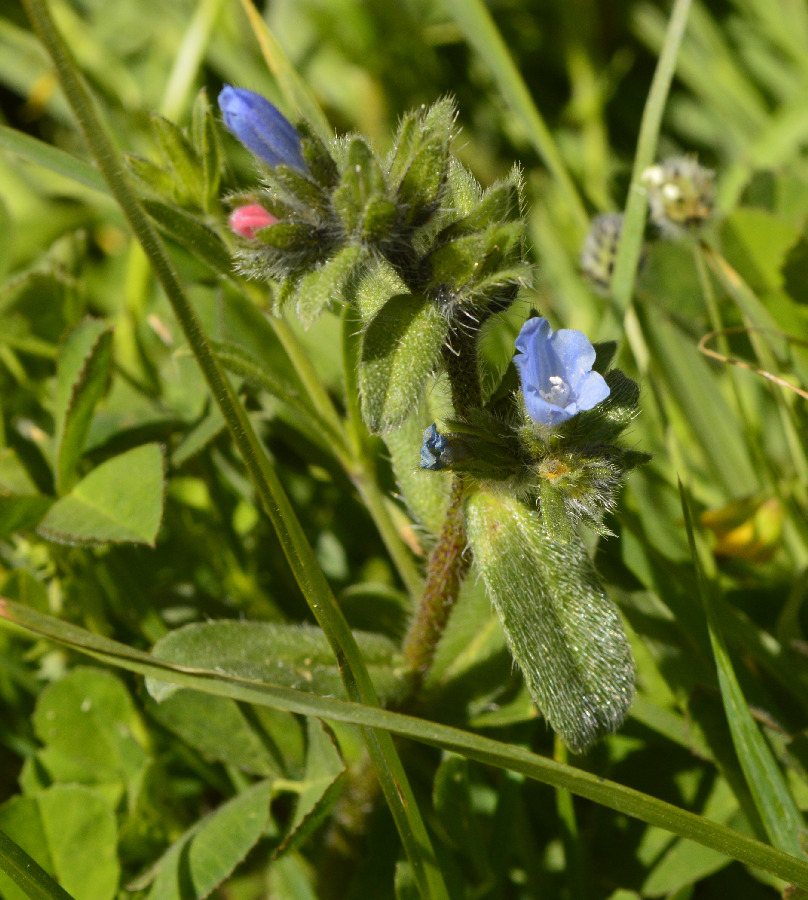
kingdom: Plantae
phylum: Tracheophyta
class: Magnoliopsida
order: Boraginales
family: Boraginaceae
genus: Echium
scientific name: Echium parviflorum
